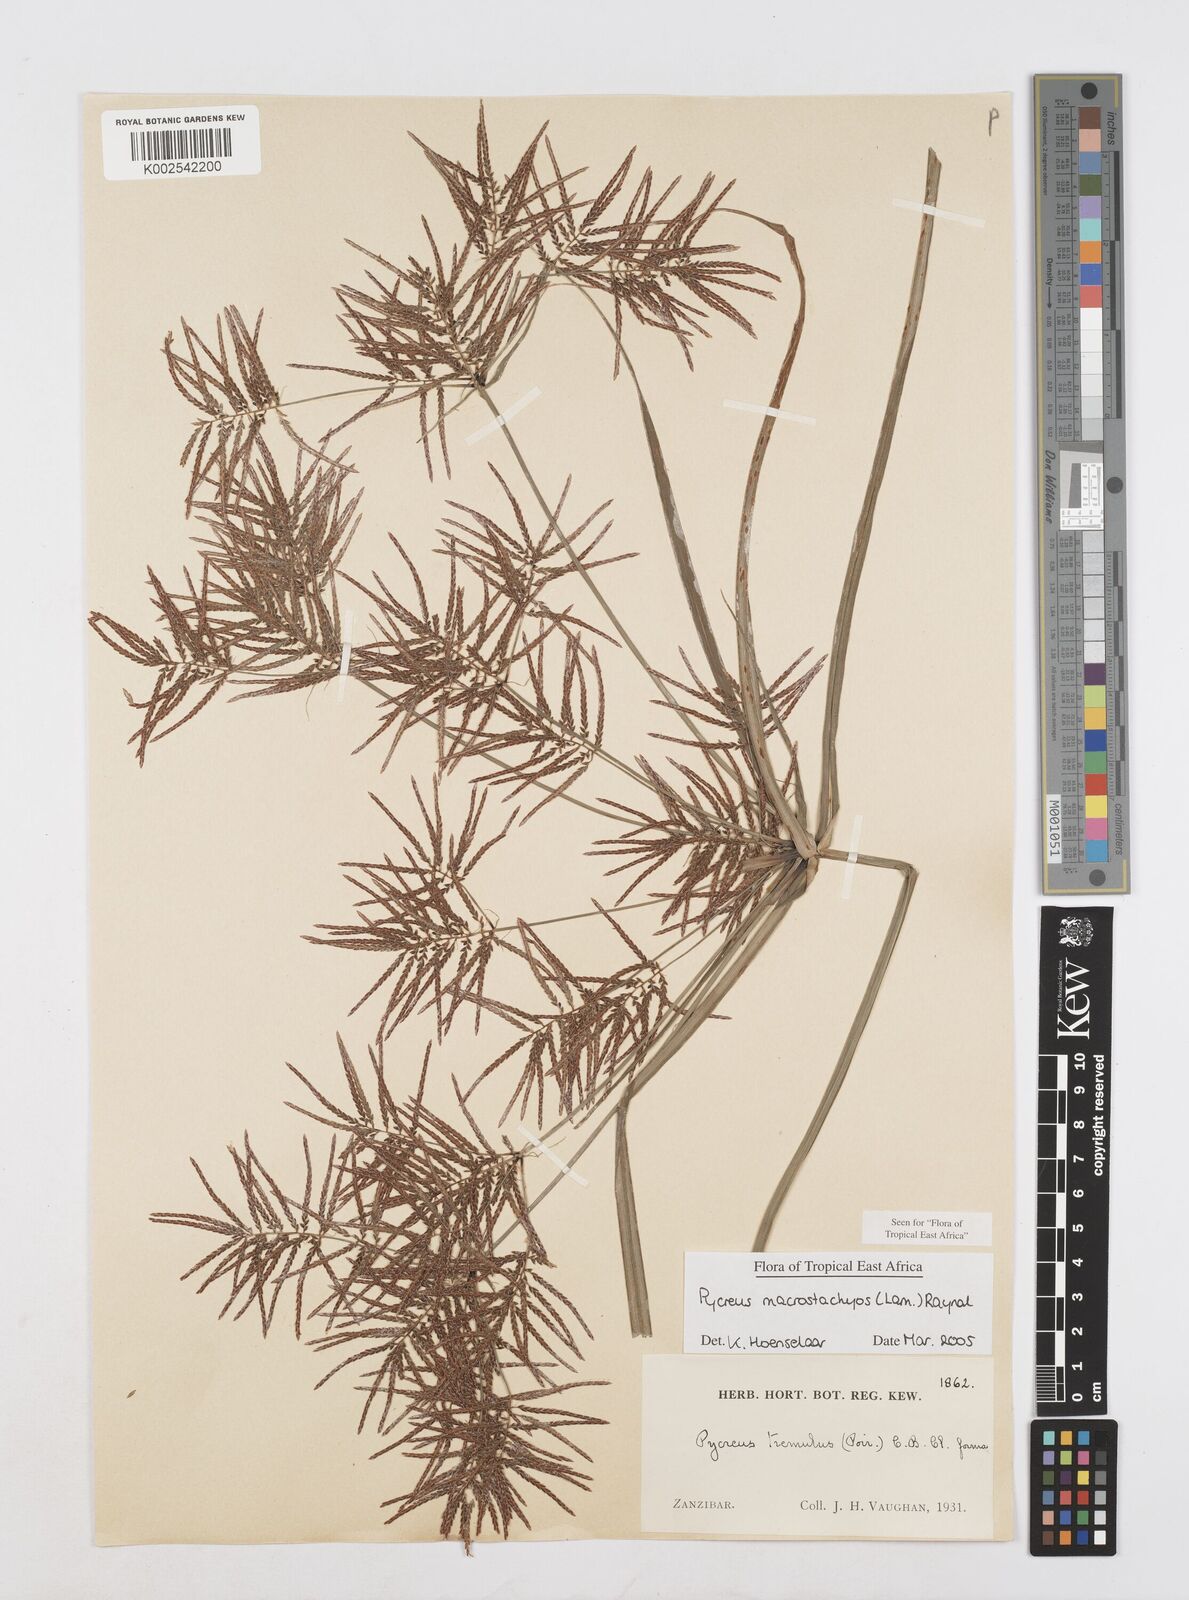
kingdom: Plantae
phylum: Tracheophyta
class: Liliopsida
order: Poales
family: Cyperaceae
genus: Cyperus
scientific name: Cyperus macrostachyos
